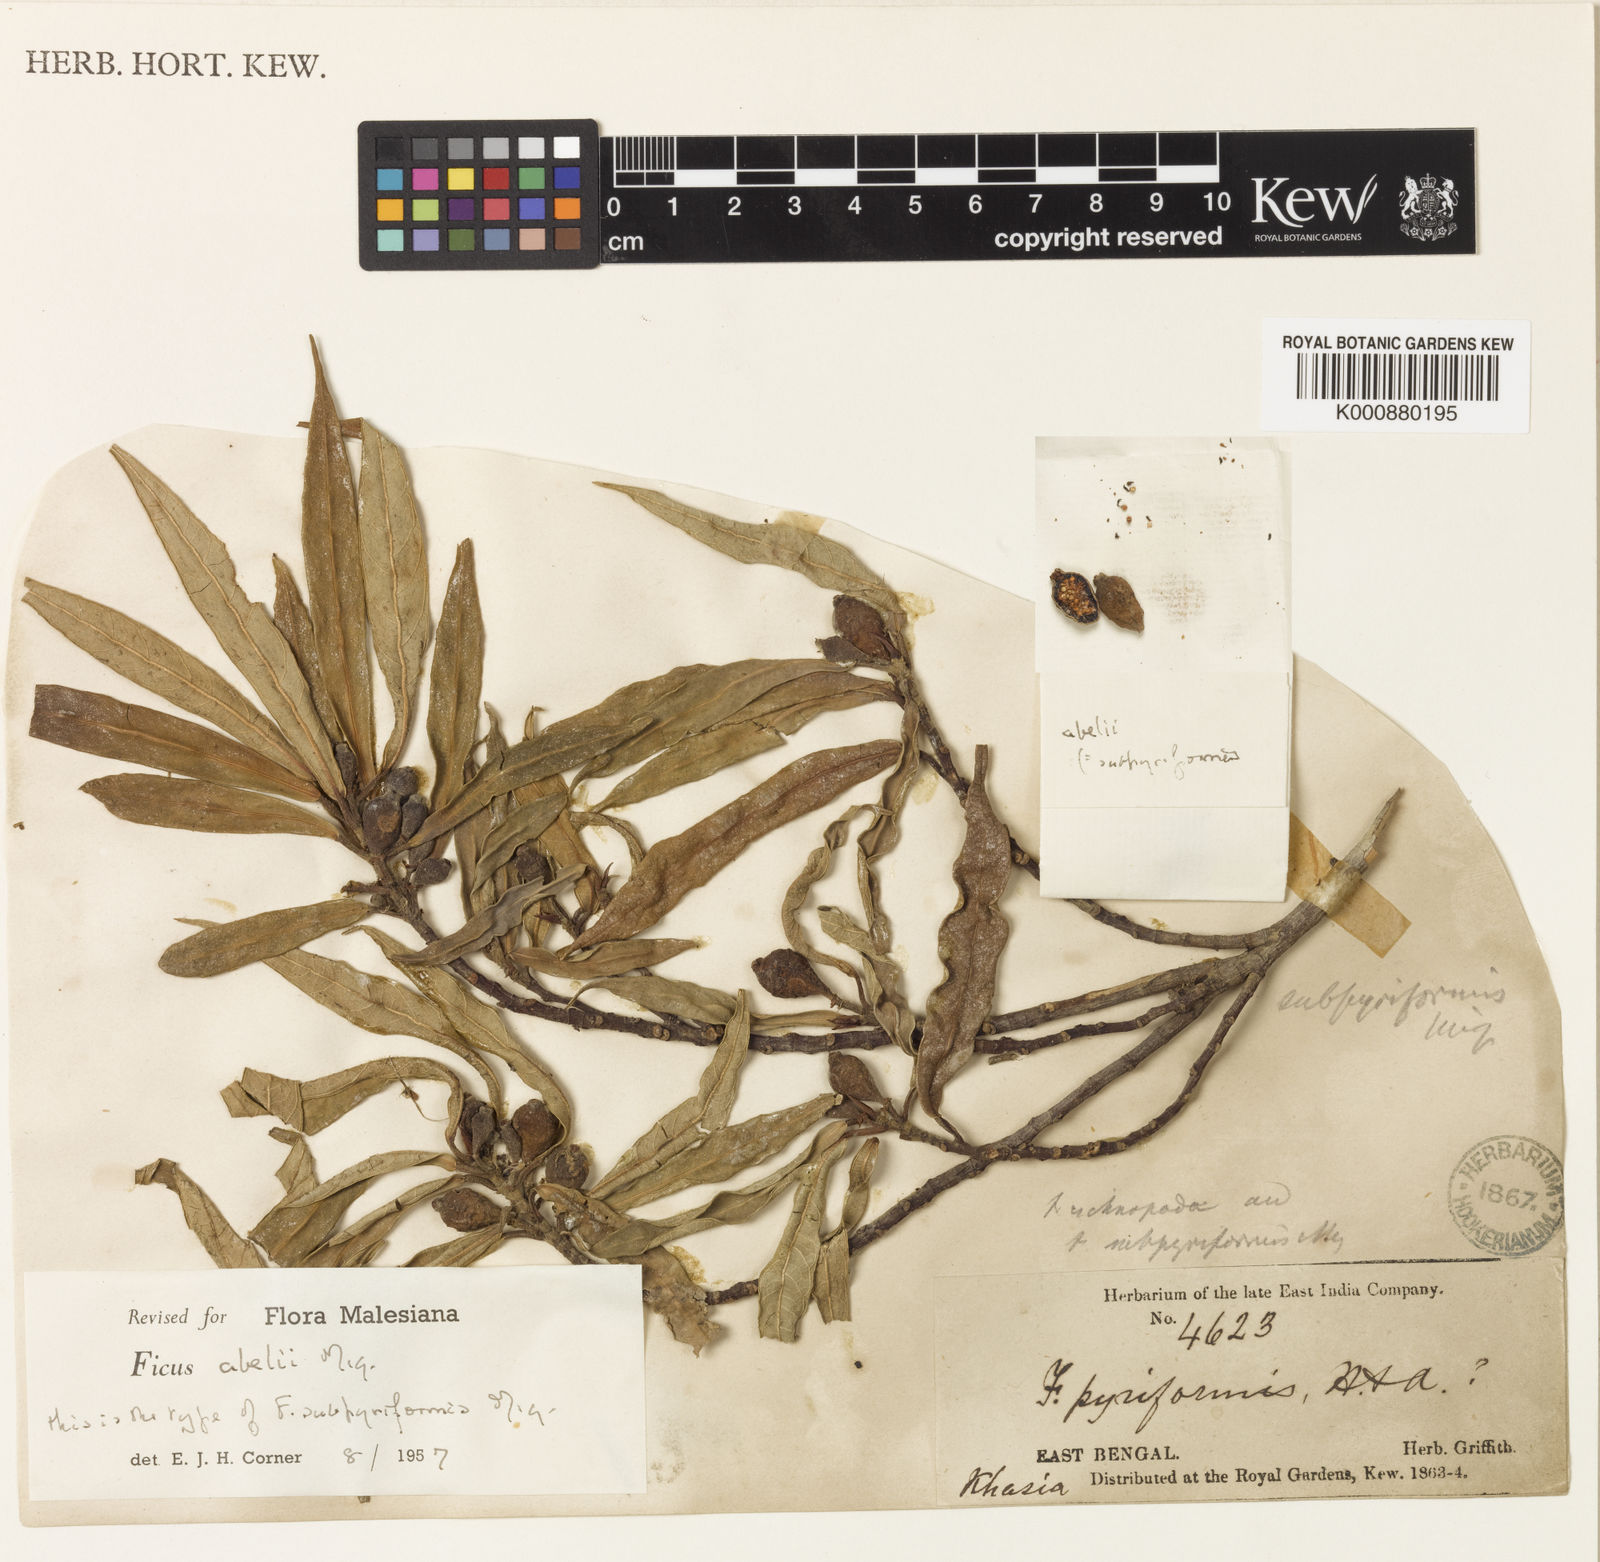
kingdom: Plantae
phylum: Tracheophyta
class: Magnoliopsida
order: Rosales
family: Moraceae
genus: Ficus
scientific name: Ficus abelii
